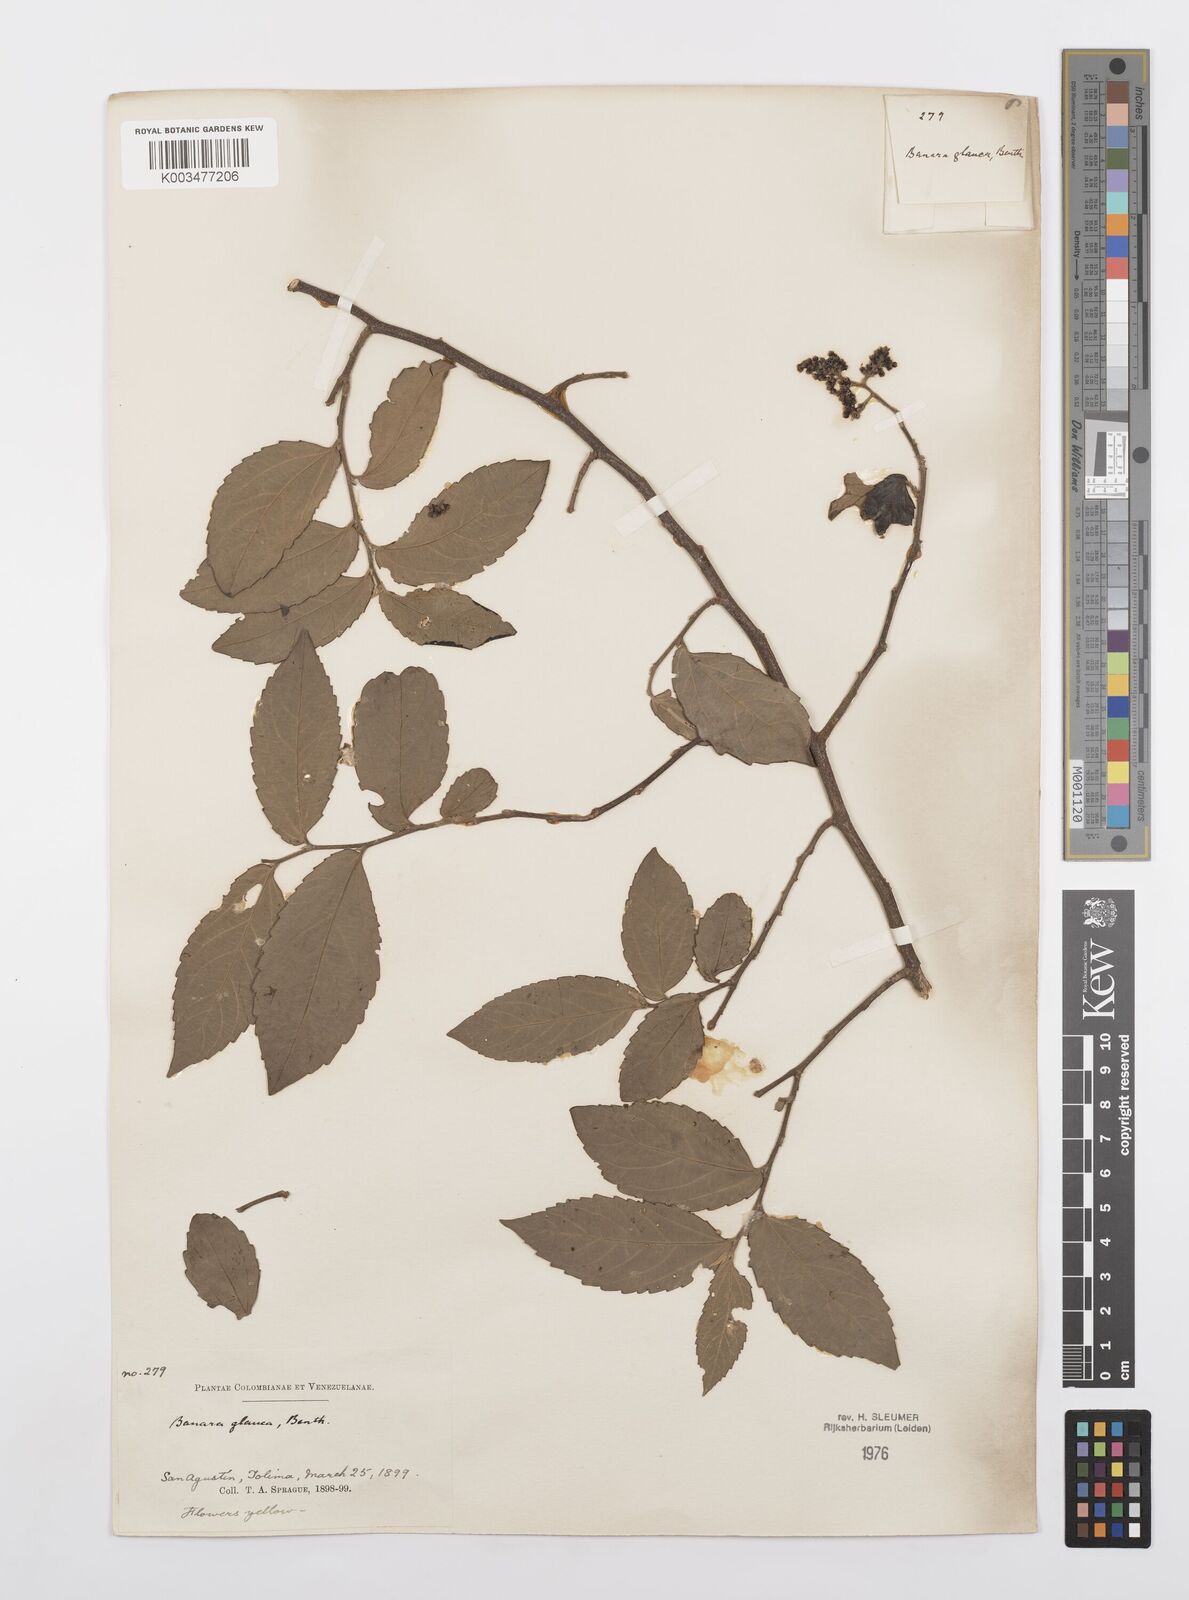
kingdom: Plantae
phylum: Tracheophyta
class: Magnoliopsida
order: Malpighiales
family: Salicaceae
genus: Banara
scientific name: Banara glauca
